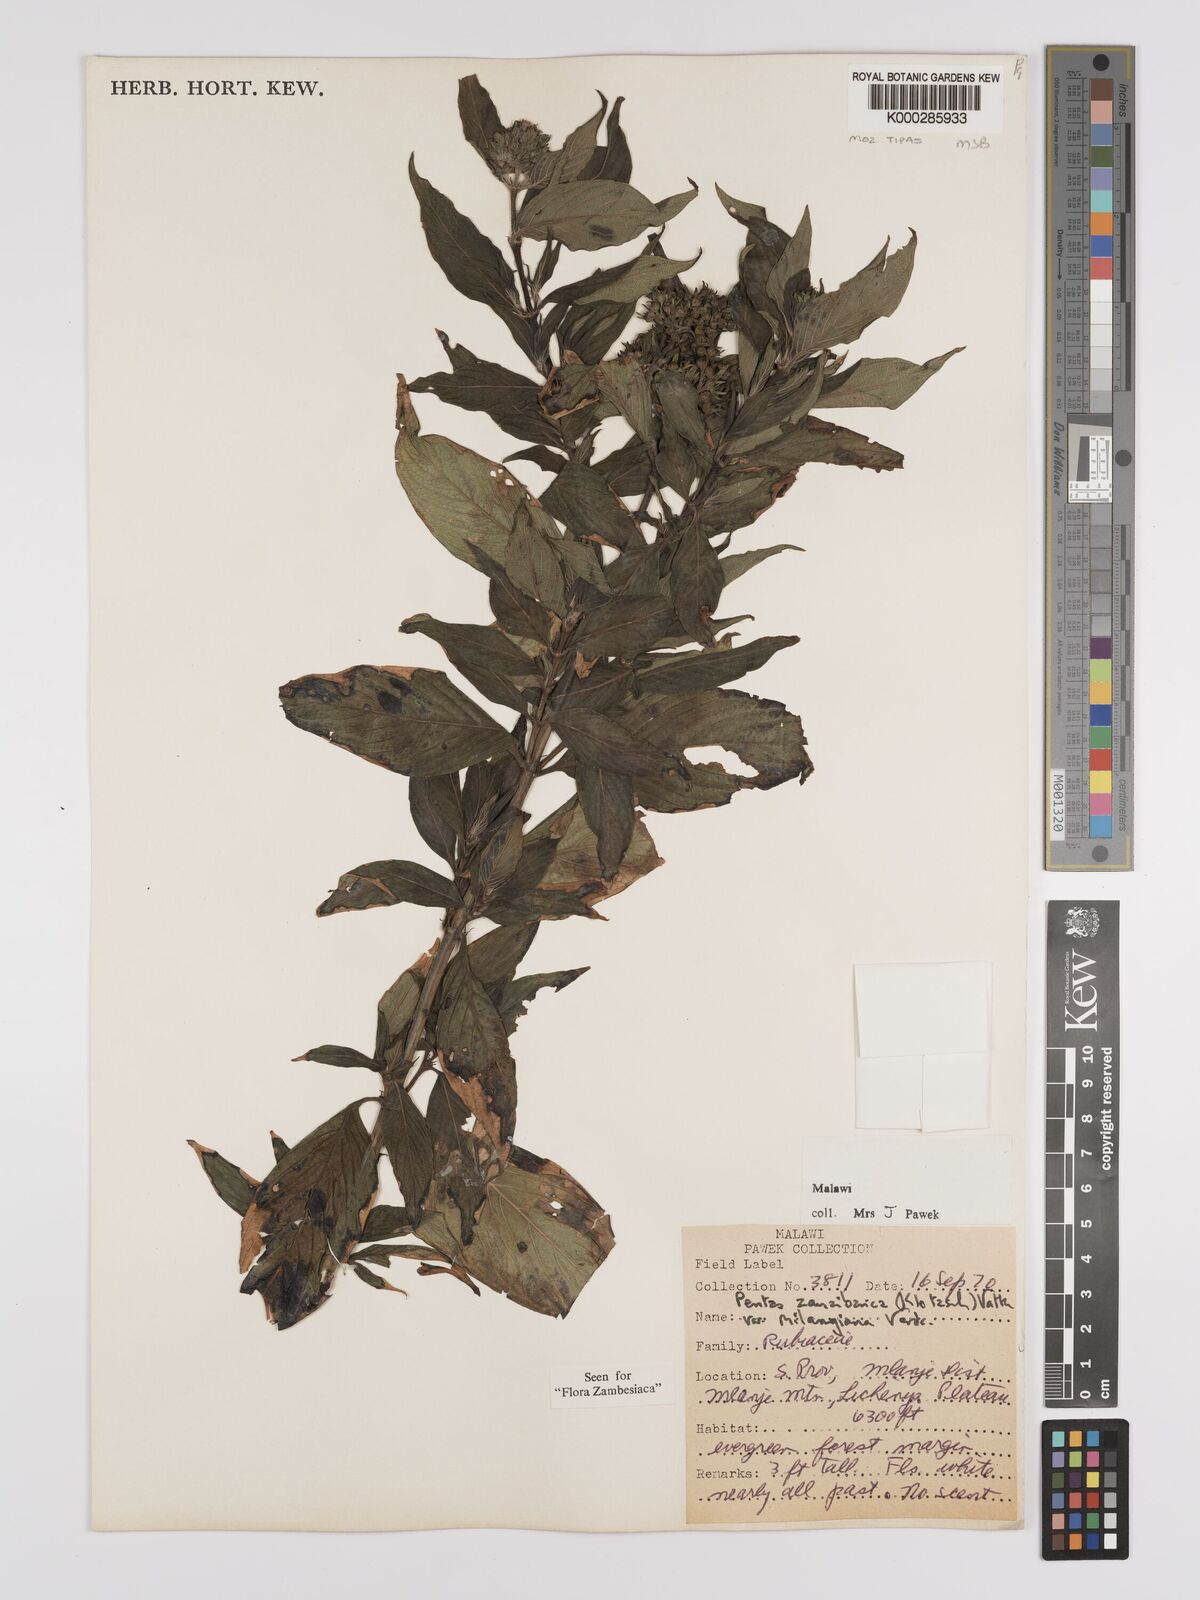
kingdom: Plantae
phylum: Tracheophyta
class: Magnoliopsida
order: Gentianales
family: Rubiaceae
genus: Pentas
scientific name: Pentas zanzibarica
